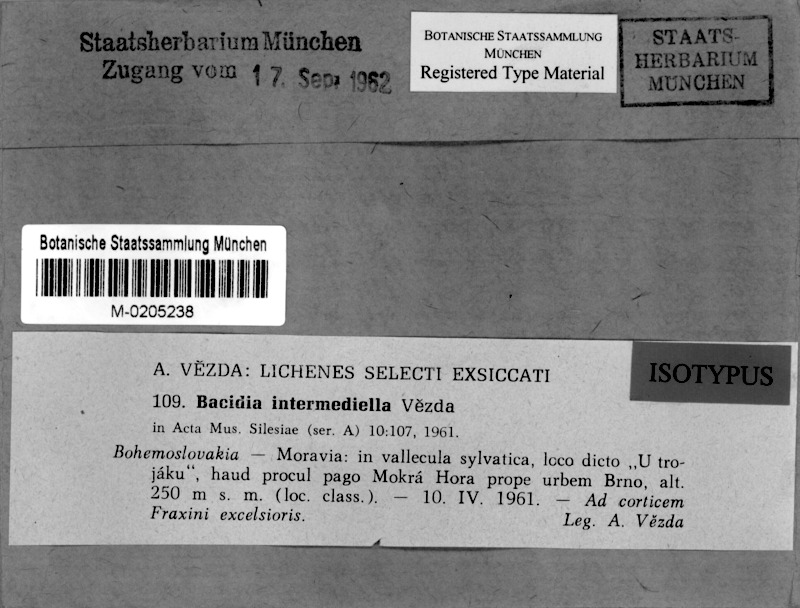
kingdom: Fungi
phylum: Ascomycota
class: Lecanoromycetes
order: Lecanorales
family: Ramalinaceae
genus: Bacidia
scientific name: Bacidia intermediella
